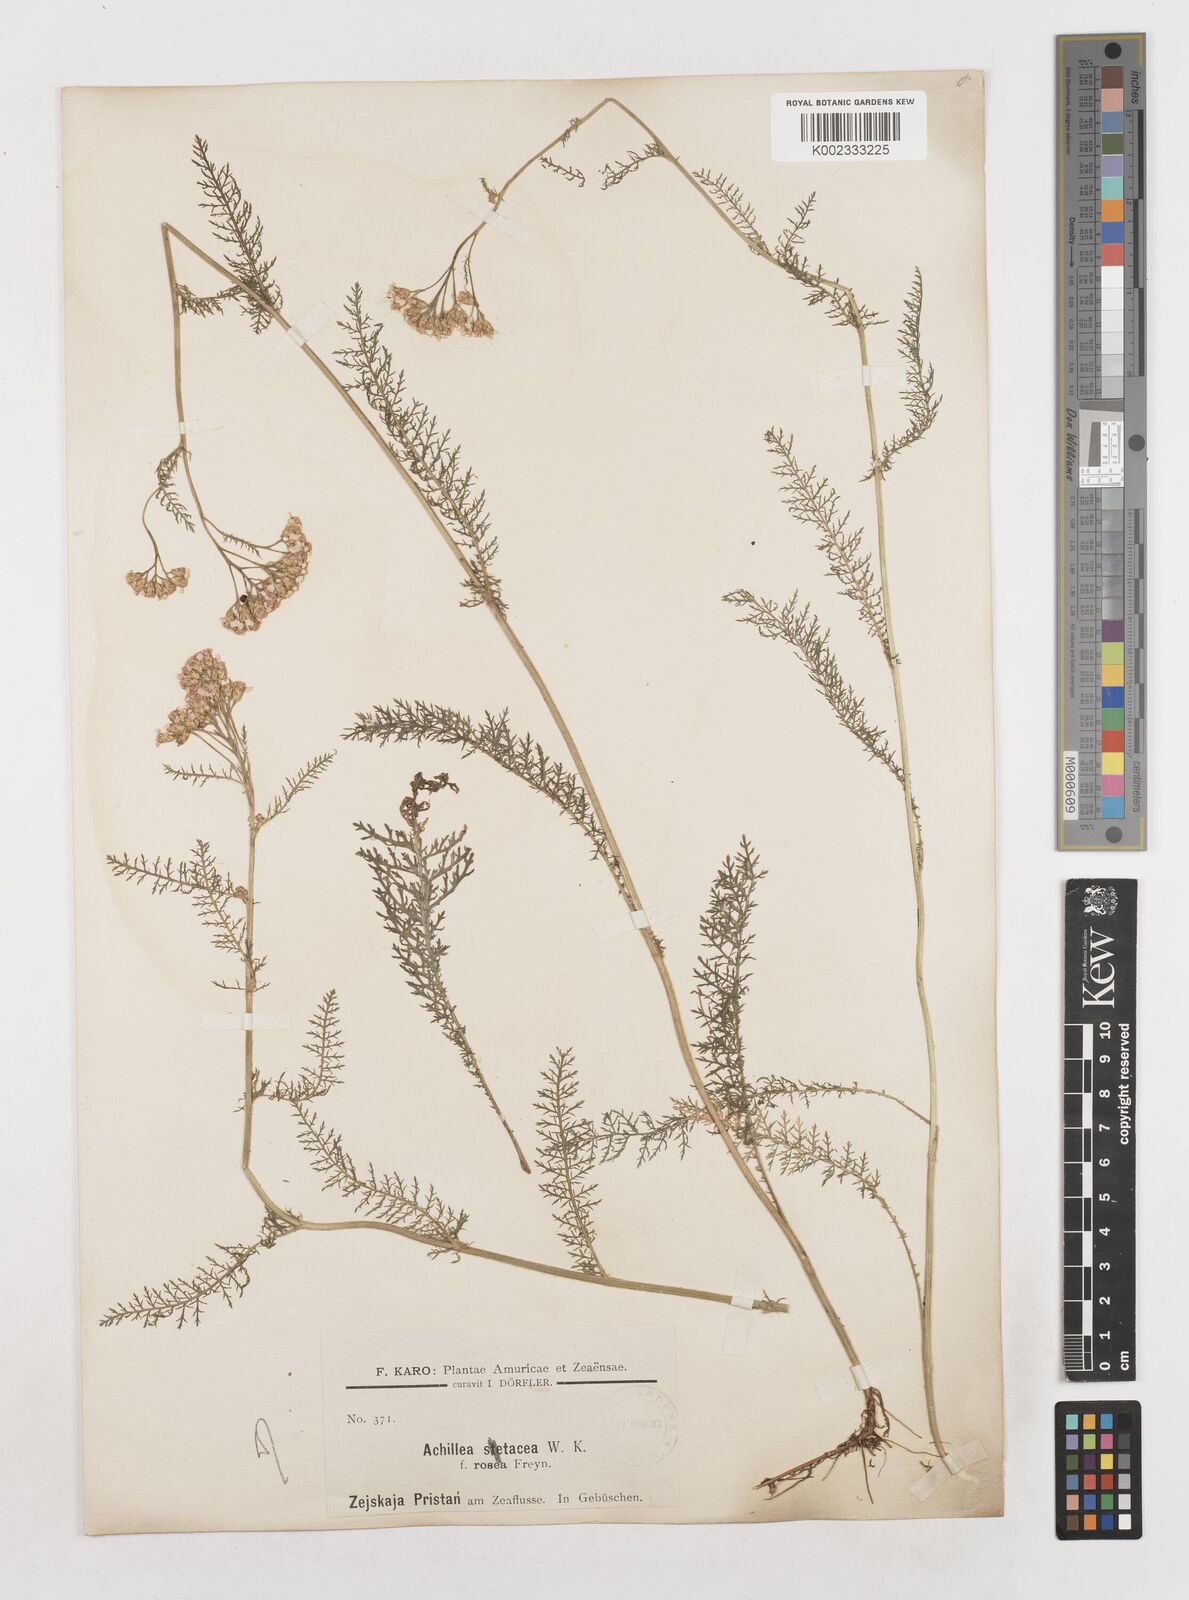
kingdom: Plantae
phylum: Tracheophyta
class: Magnoliopsida
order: Asterales
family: Asteraceae
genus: Achillea
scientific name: Achillea millefolium
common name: Yarrow
